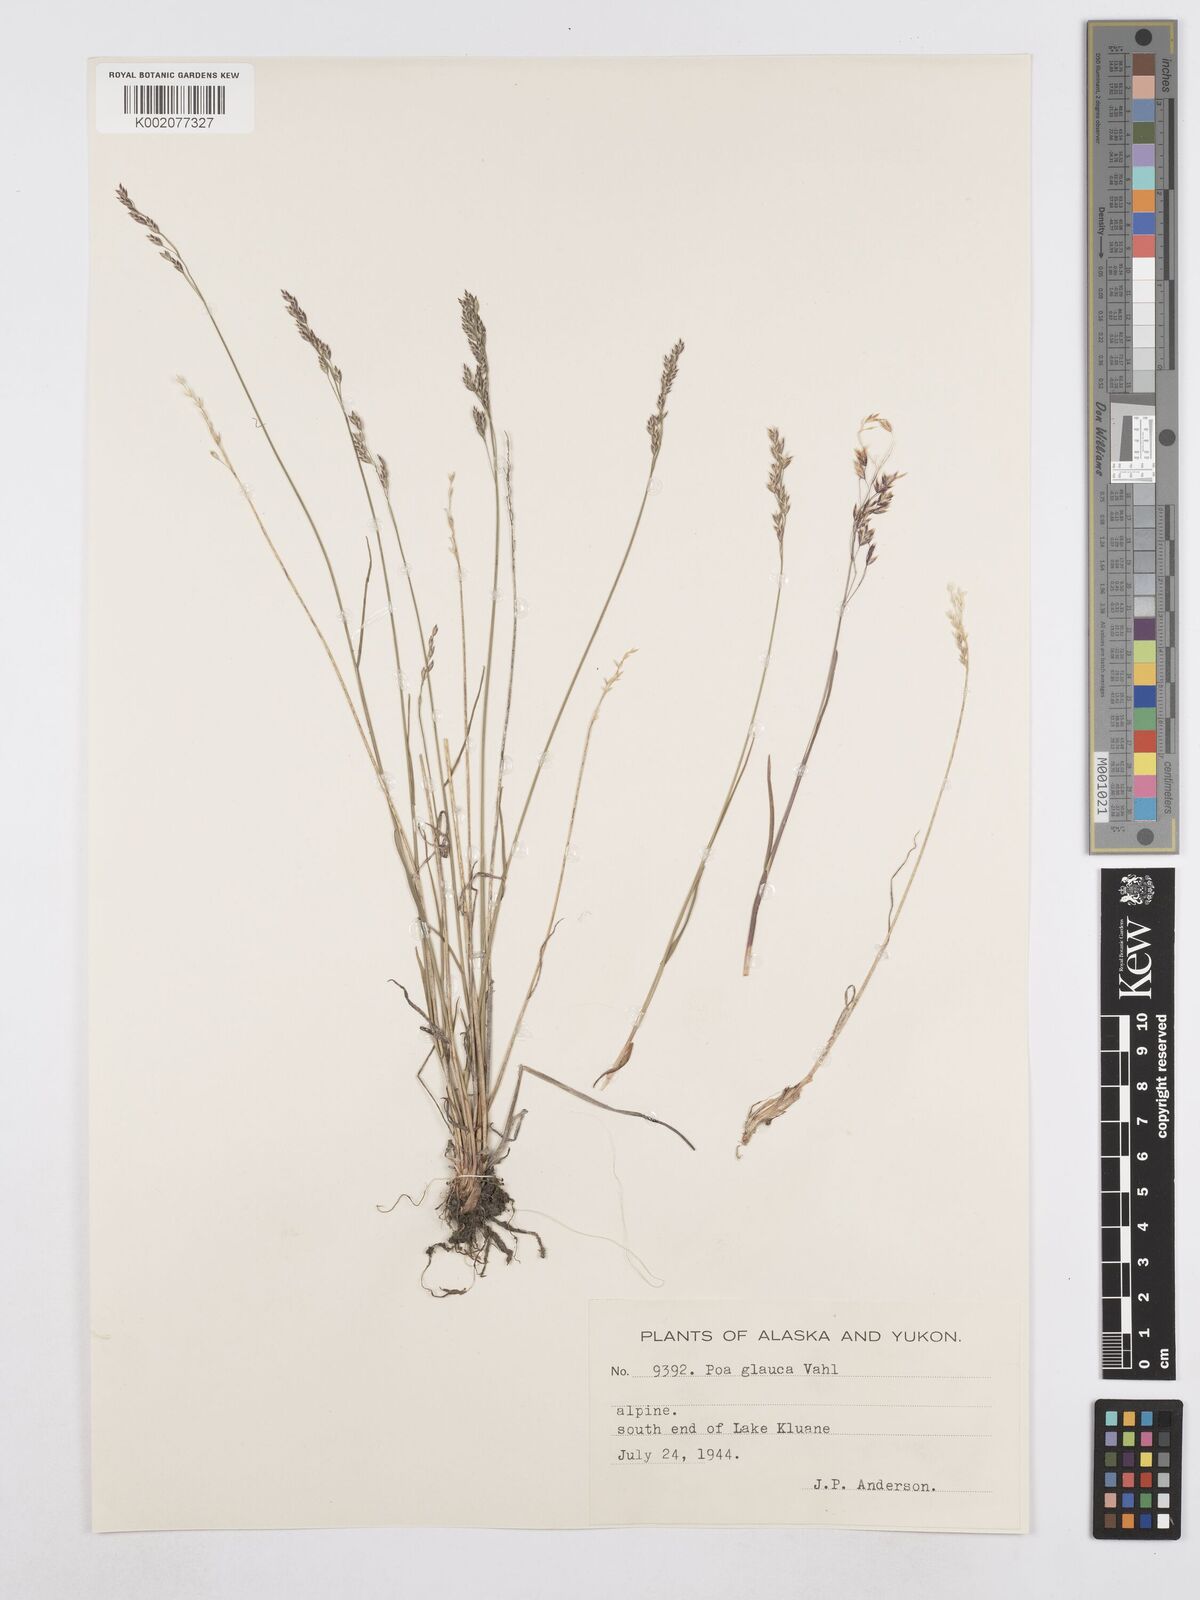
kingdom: Plantae
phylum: Tracheophyta
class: Liliopsida
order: Poales
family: Poaceae
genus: Poa
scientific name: Poa glauca
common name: Glaucous bluegrass
